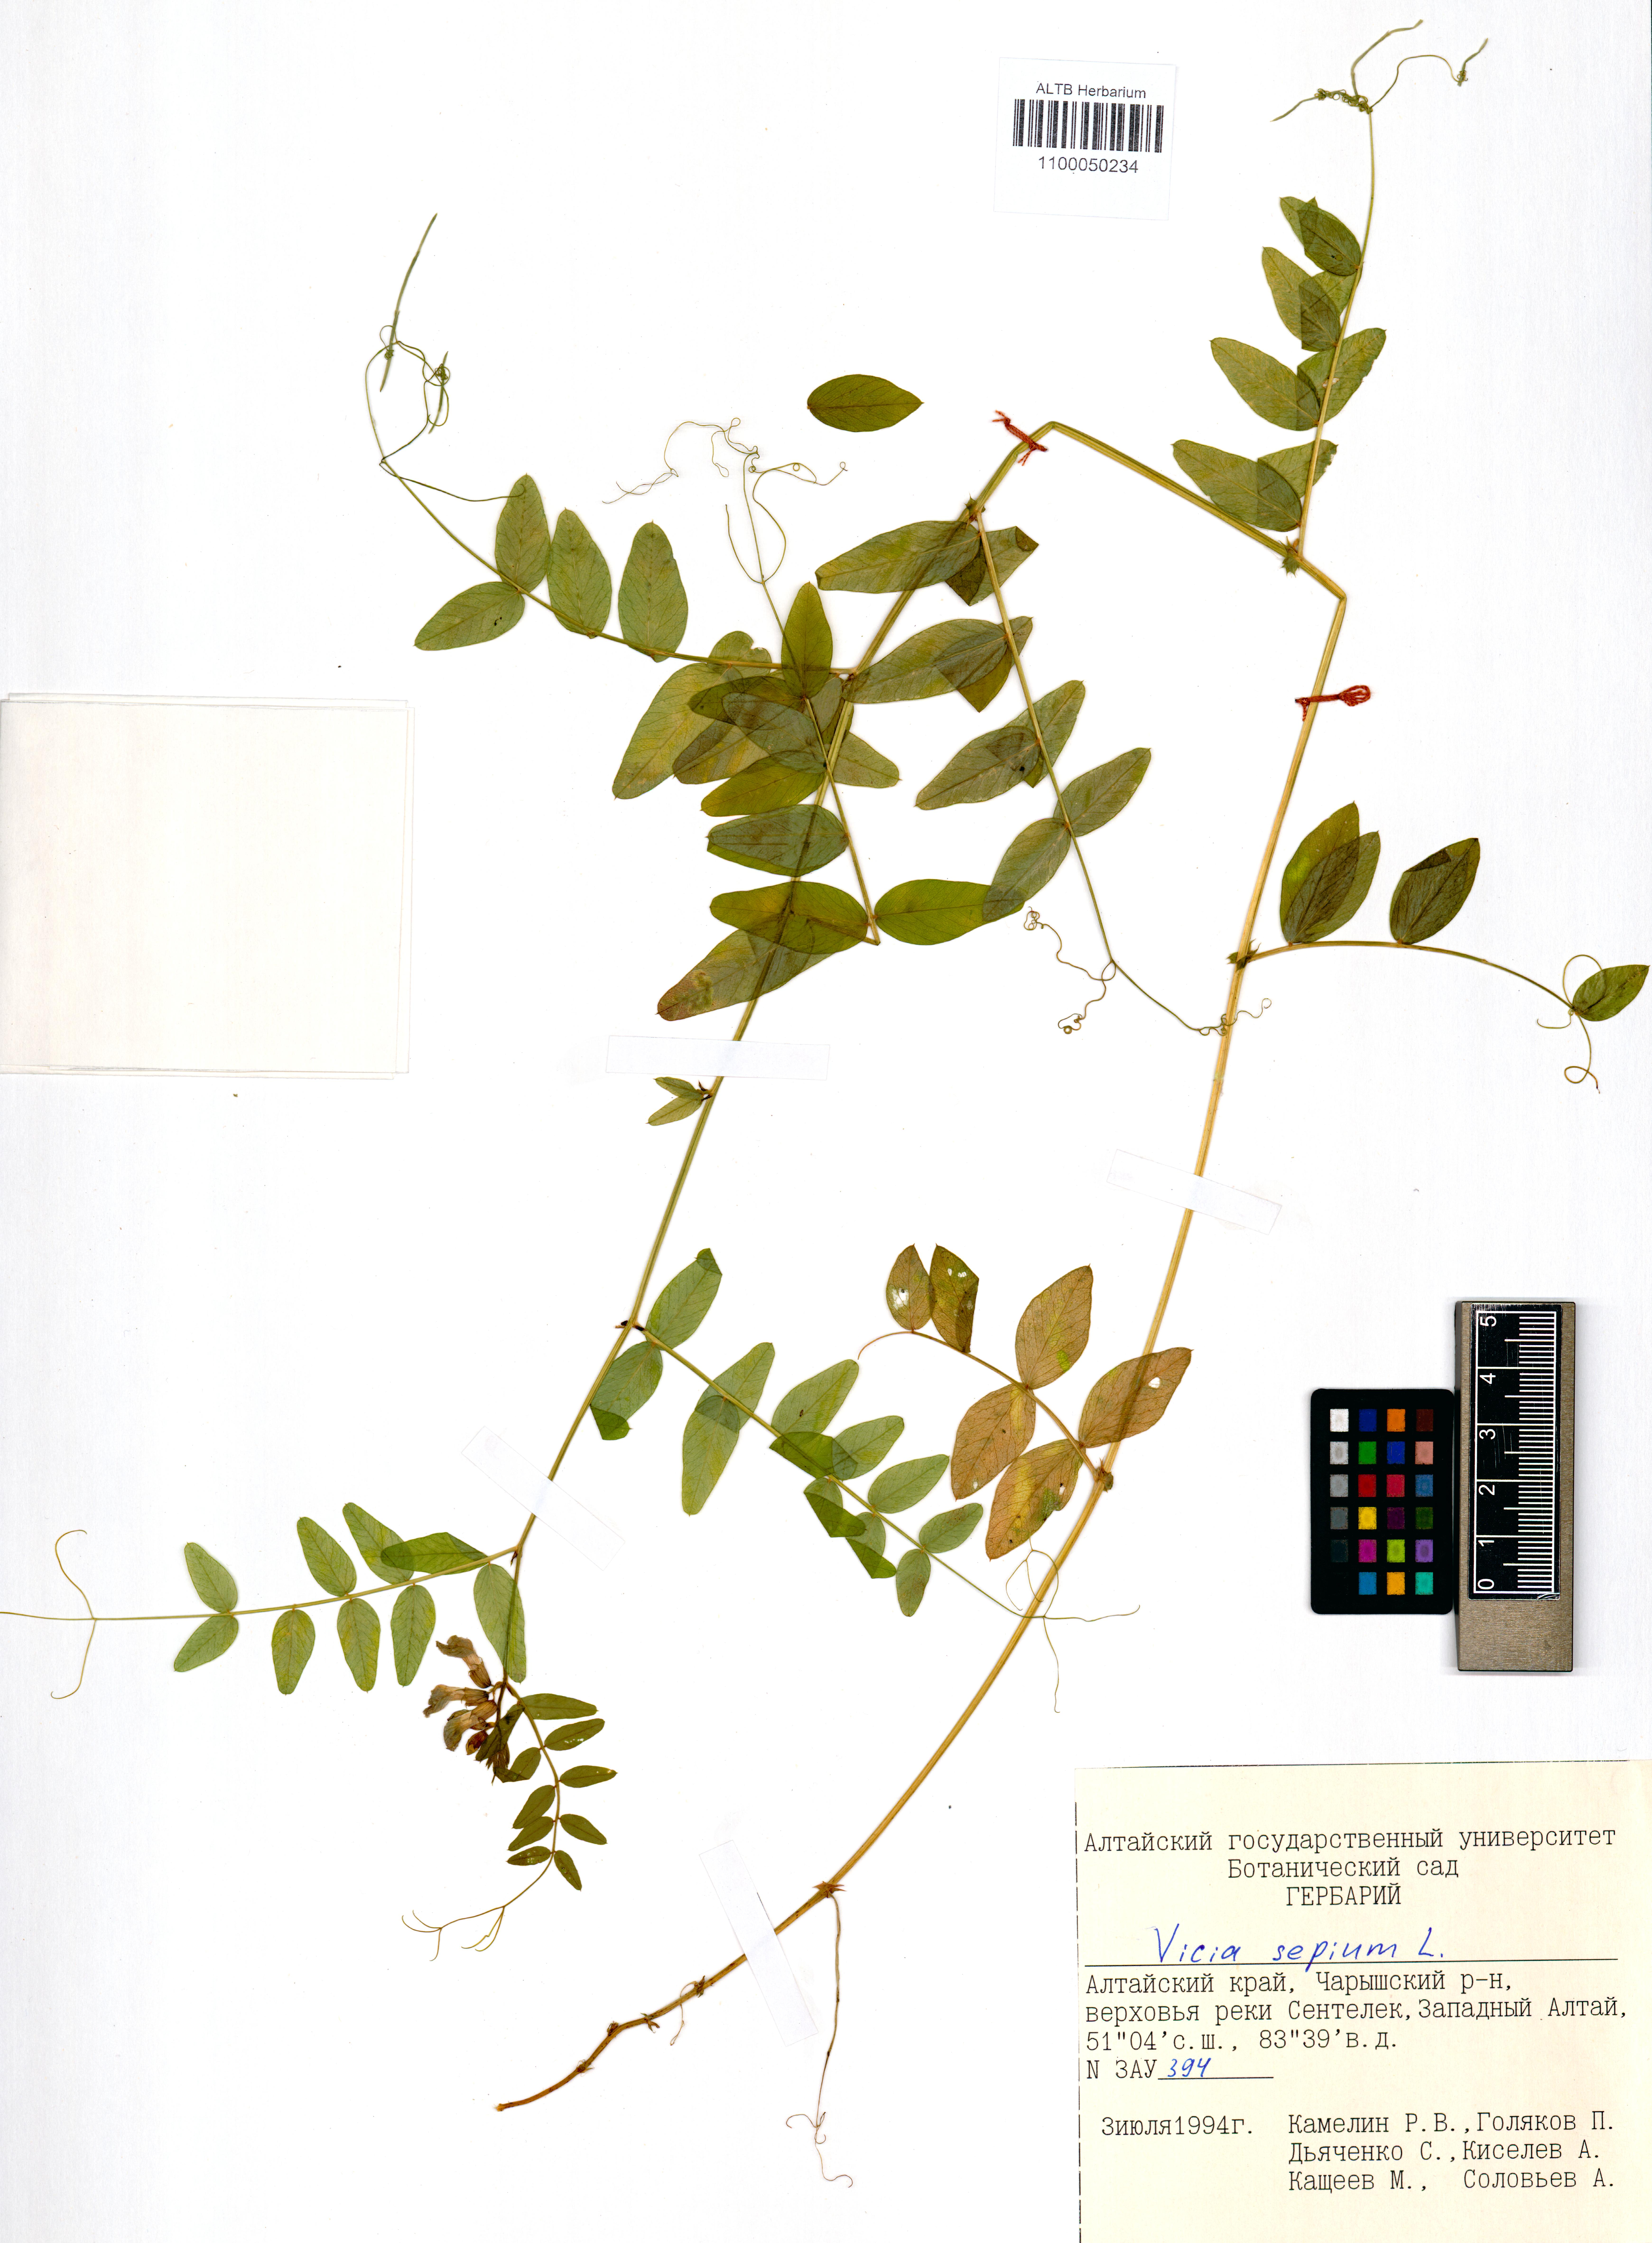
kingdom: Plantae
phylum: Tracheophyta
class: Magnoliopsida
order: Fabales
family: Fabaceae
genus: Vicia
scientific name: Vicia sepium
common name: Bush vetch
